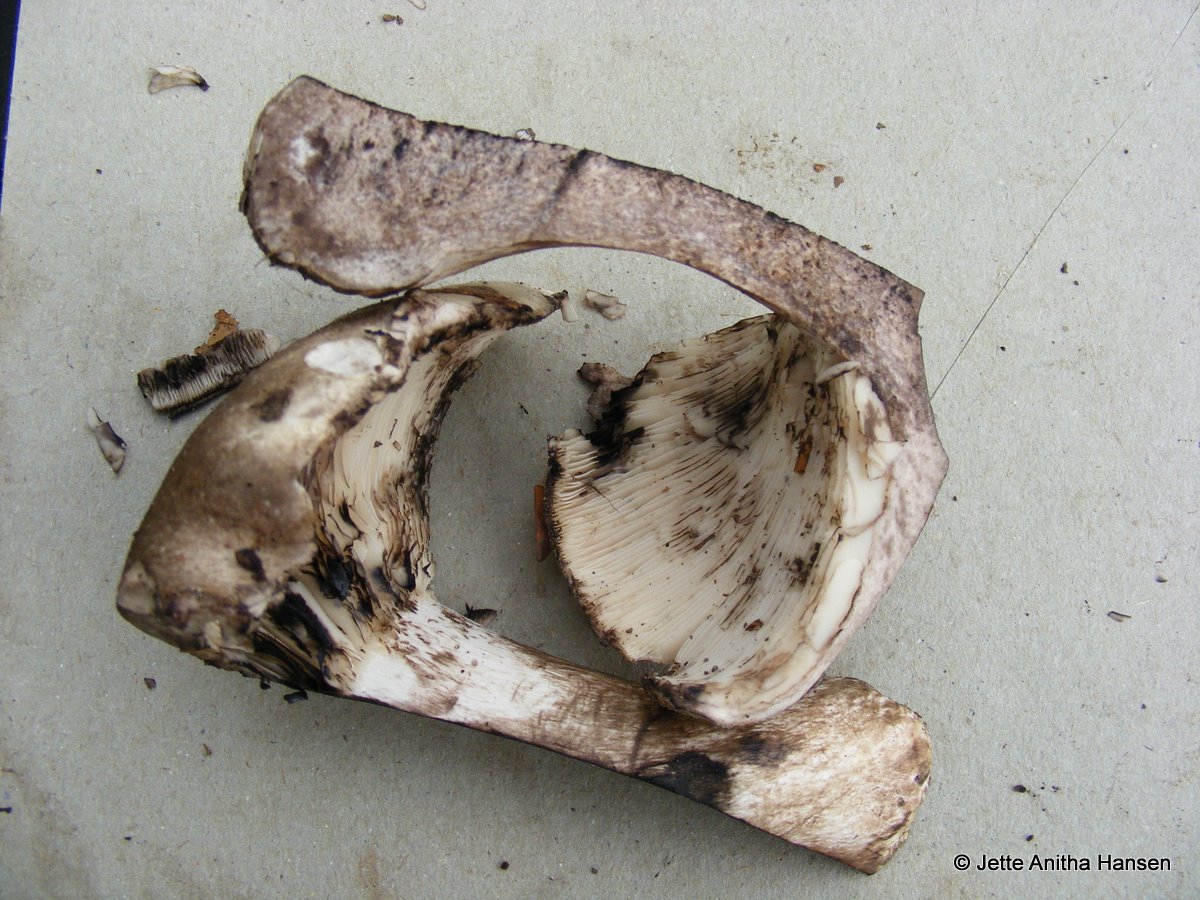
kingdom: Fungi
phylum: Basidiomycota
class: Agaricomycetes
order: Russulales
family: Russulaceae
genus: Russula
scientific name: Russula densifolia
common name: tætbladet skørhat
